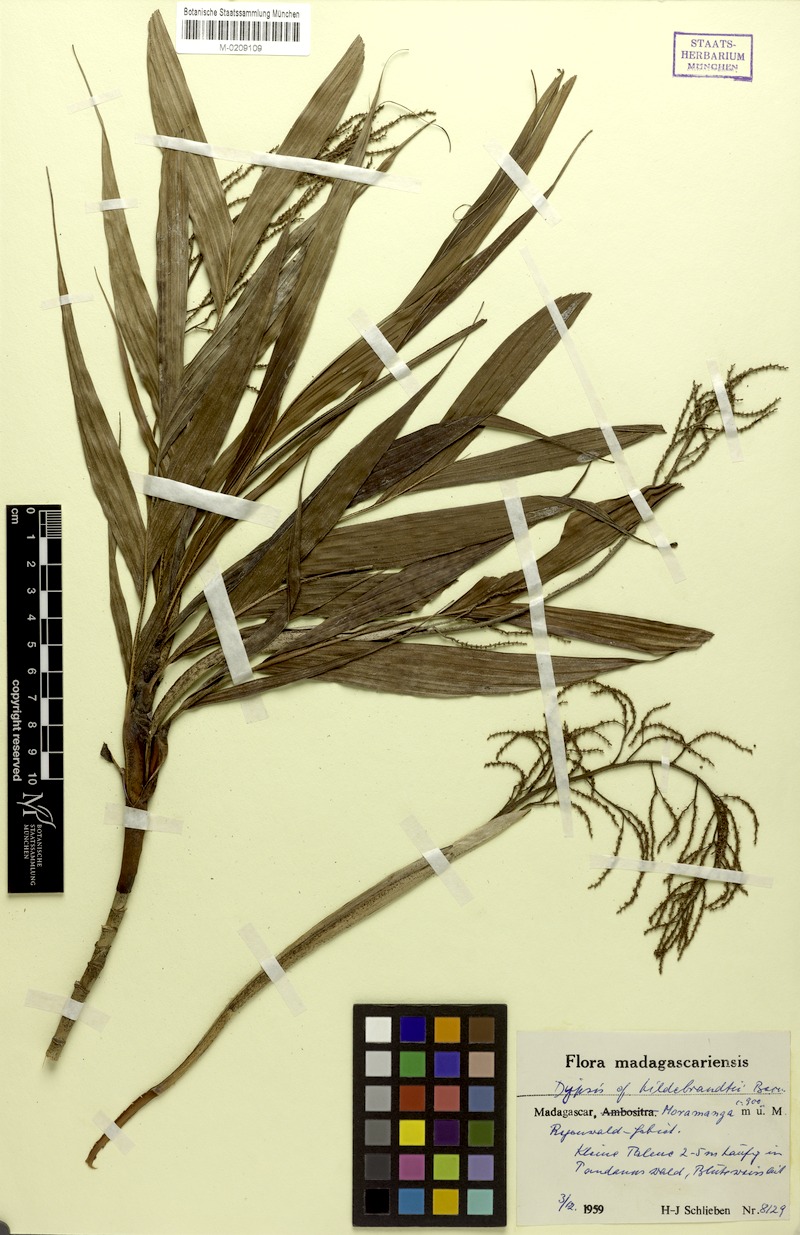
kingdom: Plantae
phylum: Tracheophyta
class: Liliopsida
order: Arecales
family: Arecaceae
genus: Dypsis
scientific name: Dypsis hildebrandtii
